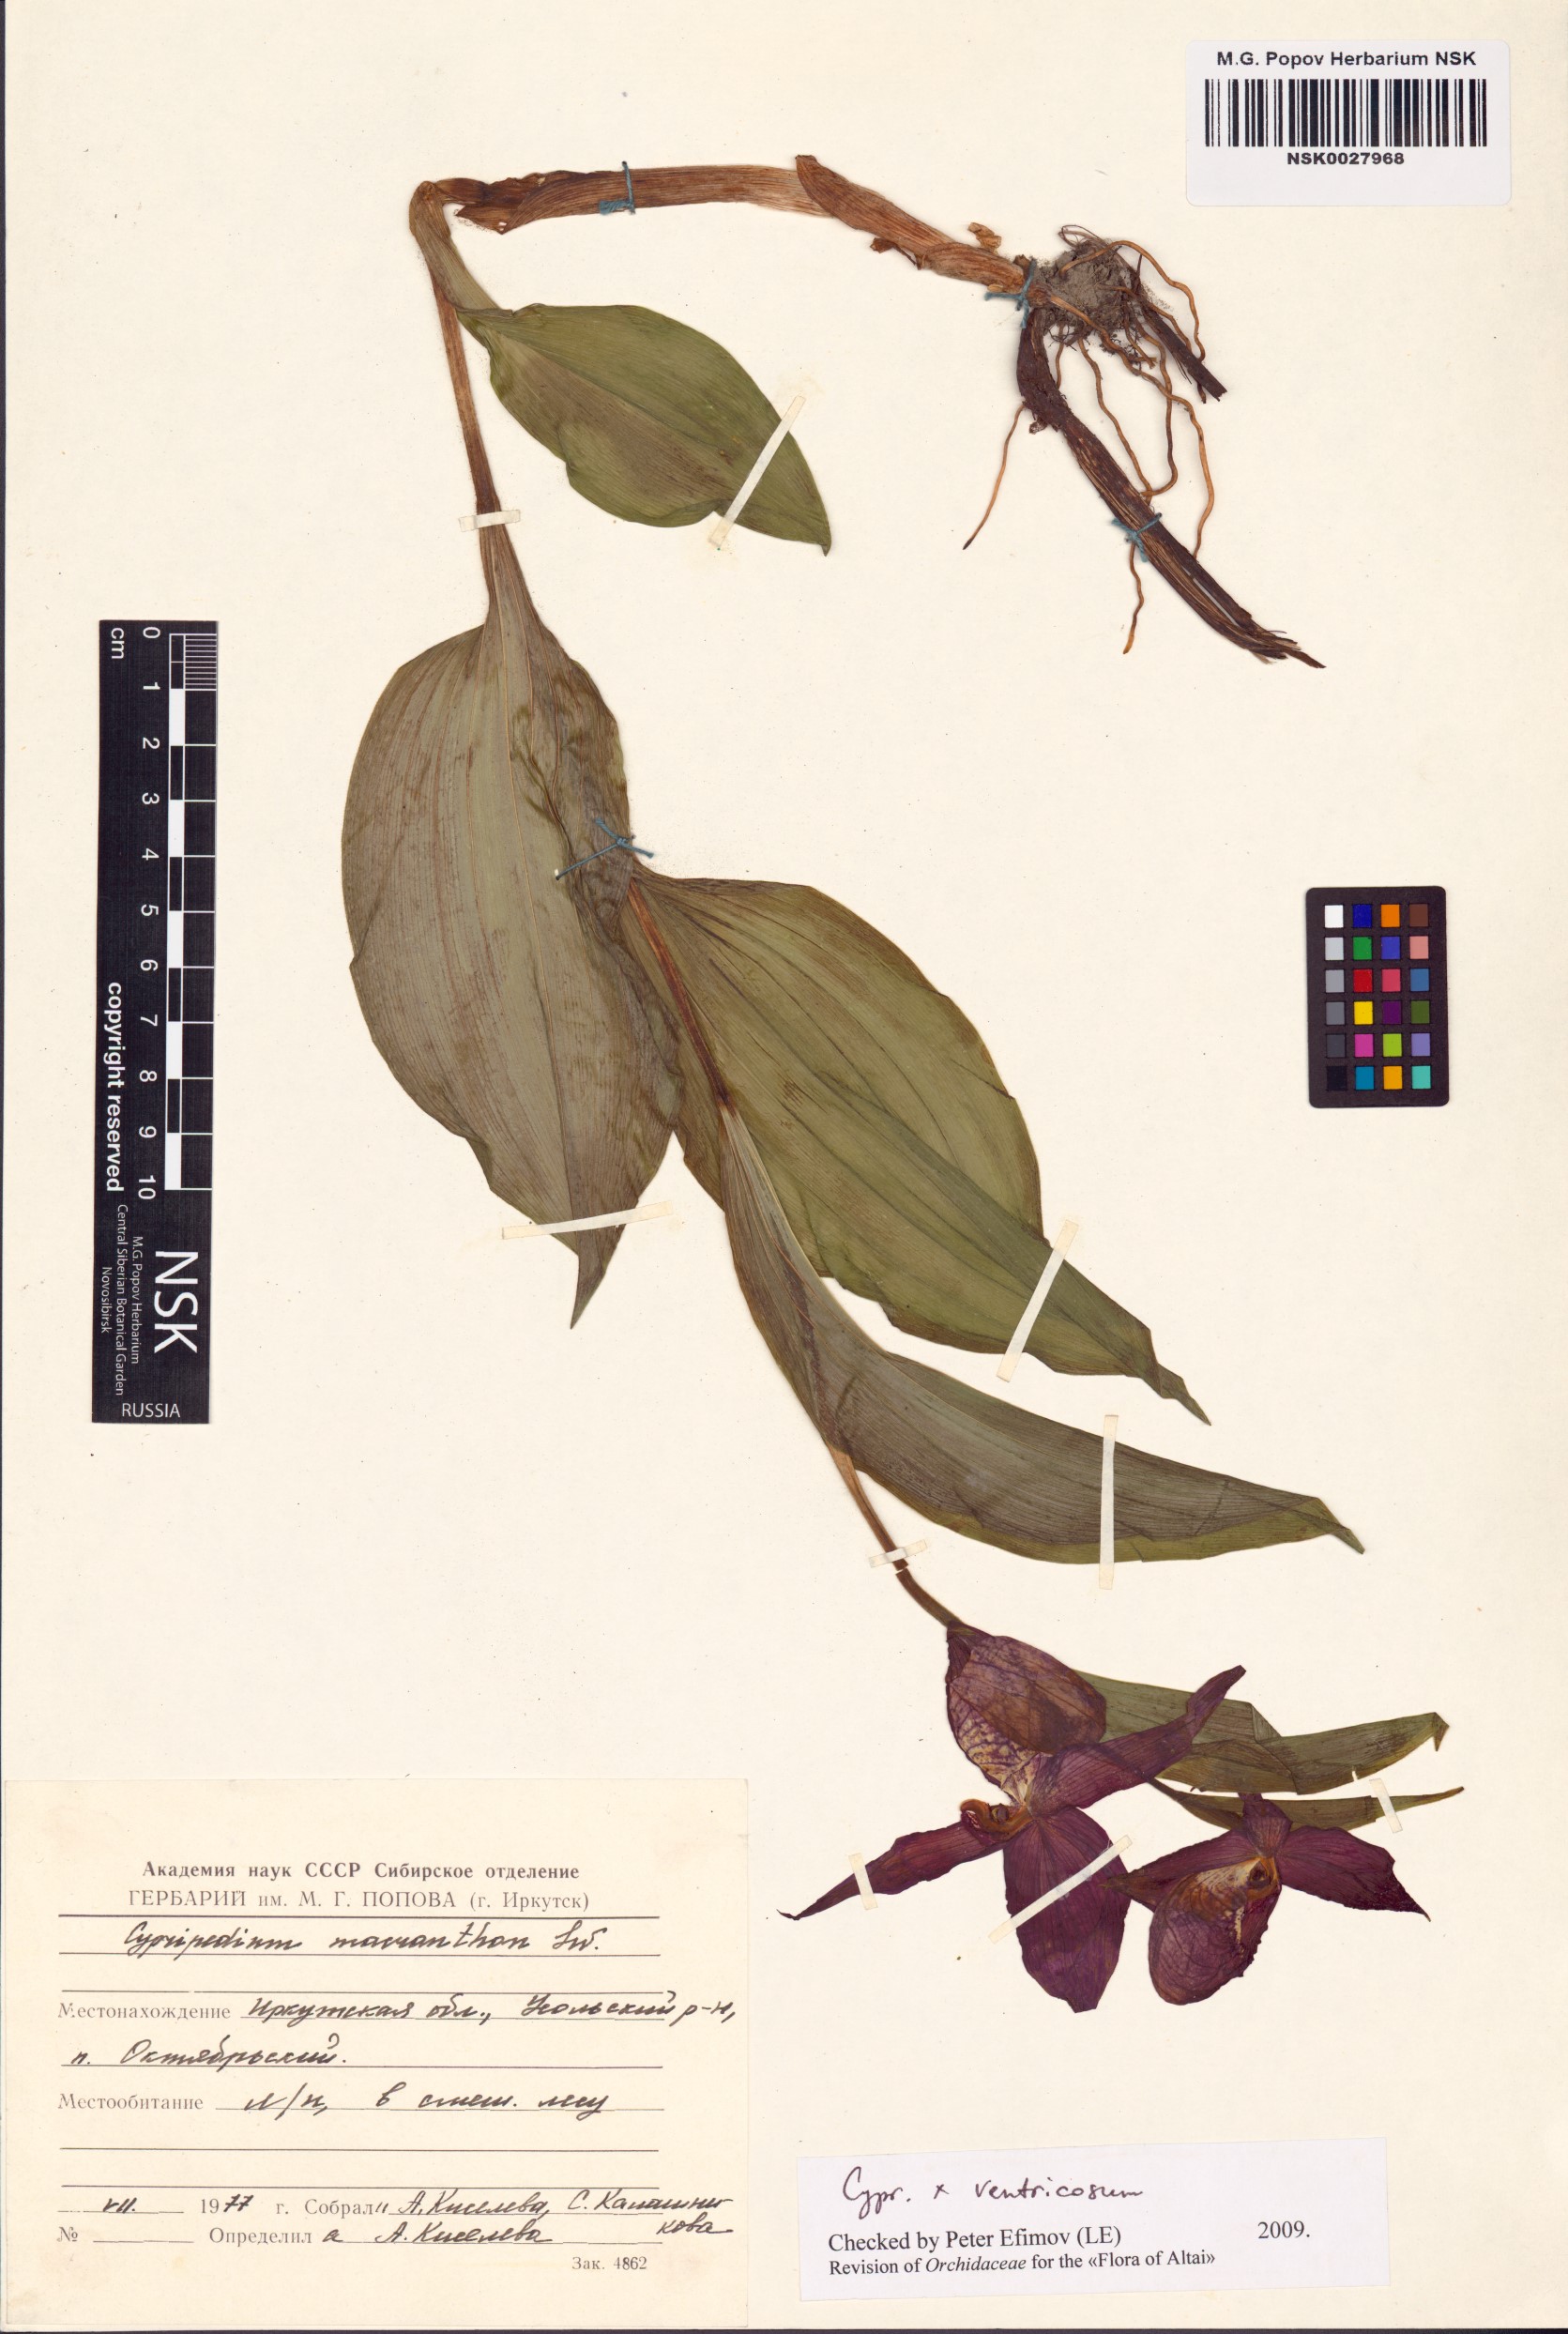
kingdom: Plantae
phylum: Tracheophyta
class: Liliopsida
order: Asparagales
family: Orchidaceae
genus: Cypripedium
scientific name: Cypripedium ventricosum
